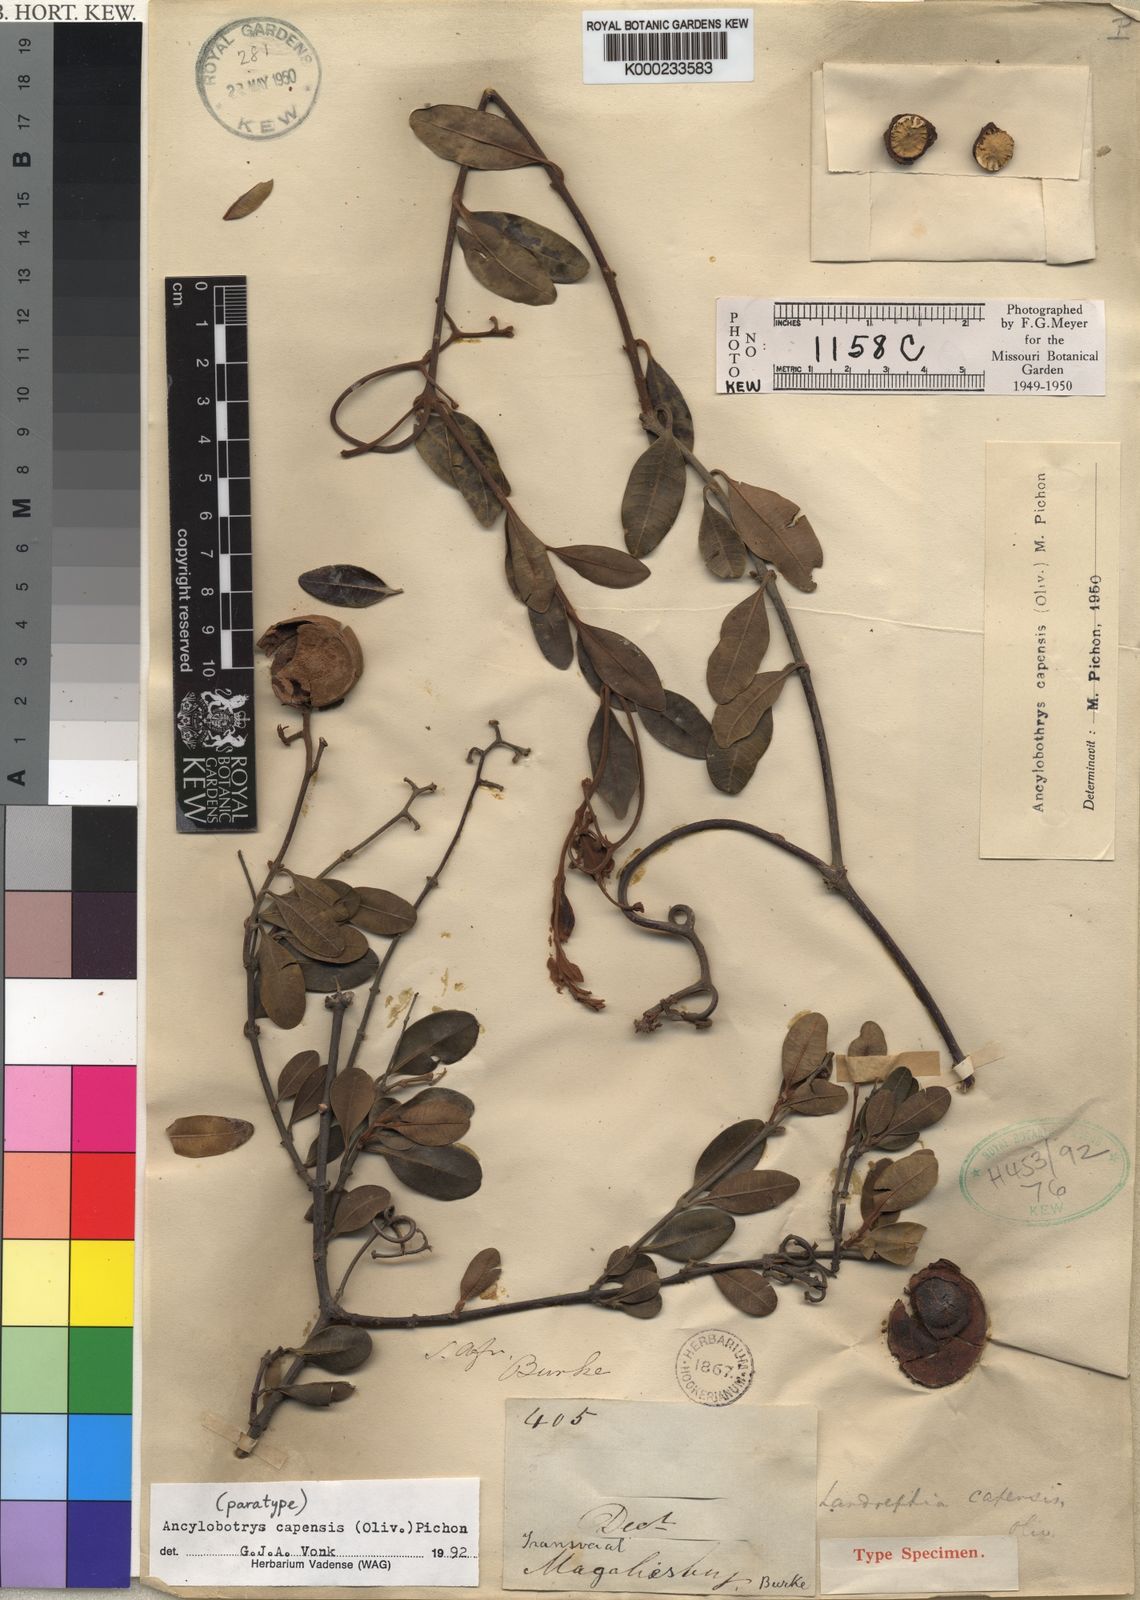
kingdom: Plantae
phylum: Tracheophyta
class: Magnoliopsida
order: Gentianales
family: Apocynaceae
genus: Ancylobothrys
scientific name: Ancylobothrys capensis
